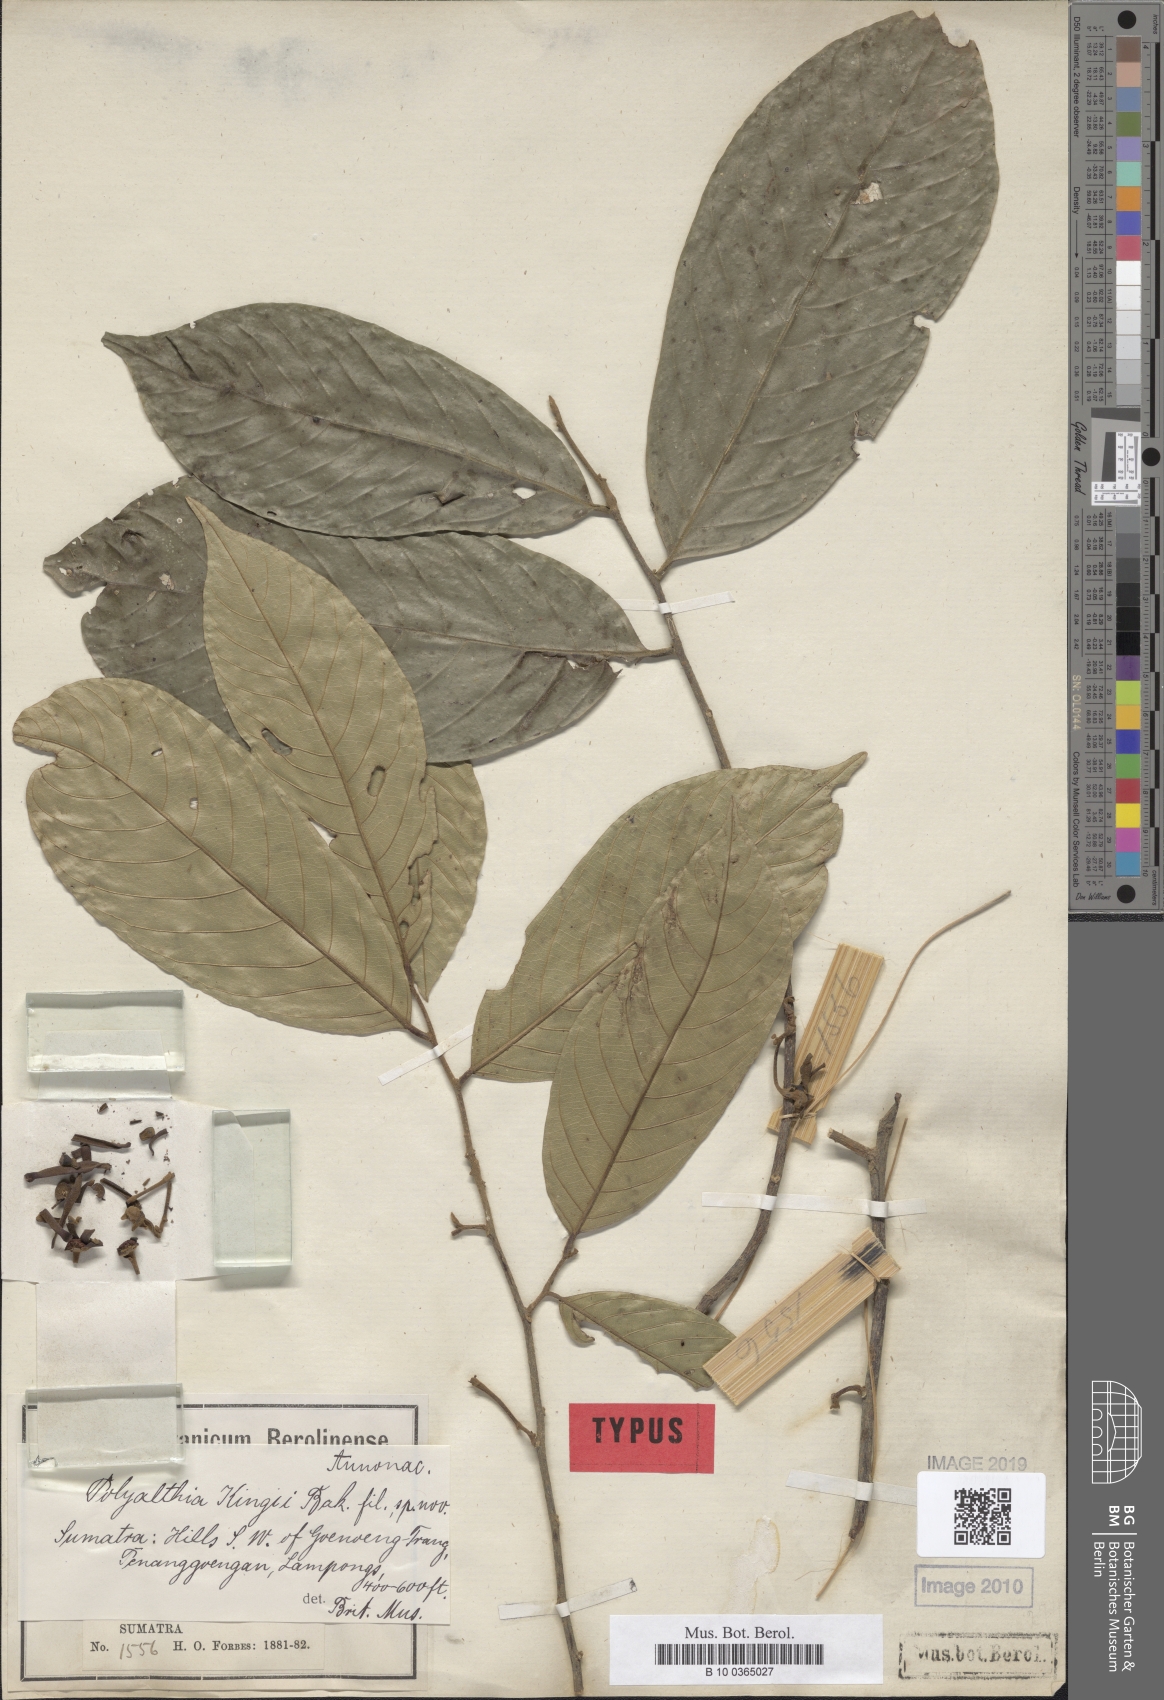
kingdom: Plantae
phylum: Tracheophyta
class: Magnoliopsida
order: Magnoliales
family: Annonaceae
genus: Polyalthia
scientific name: Polyalthia kingii
